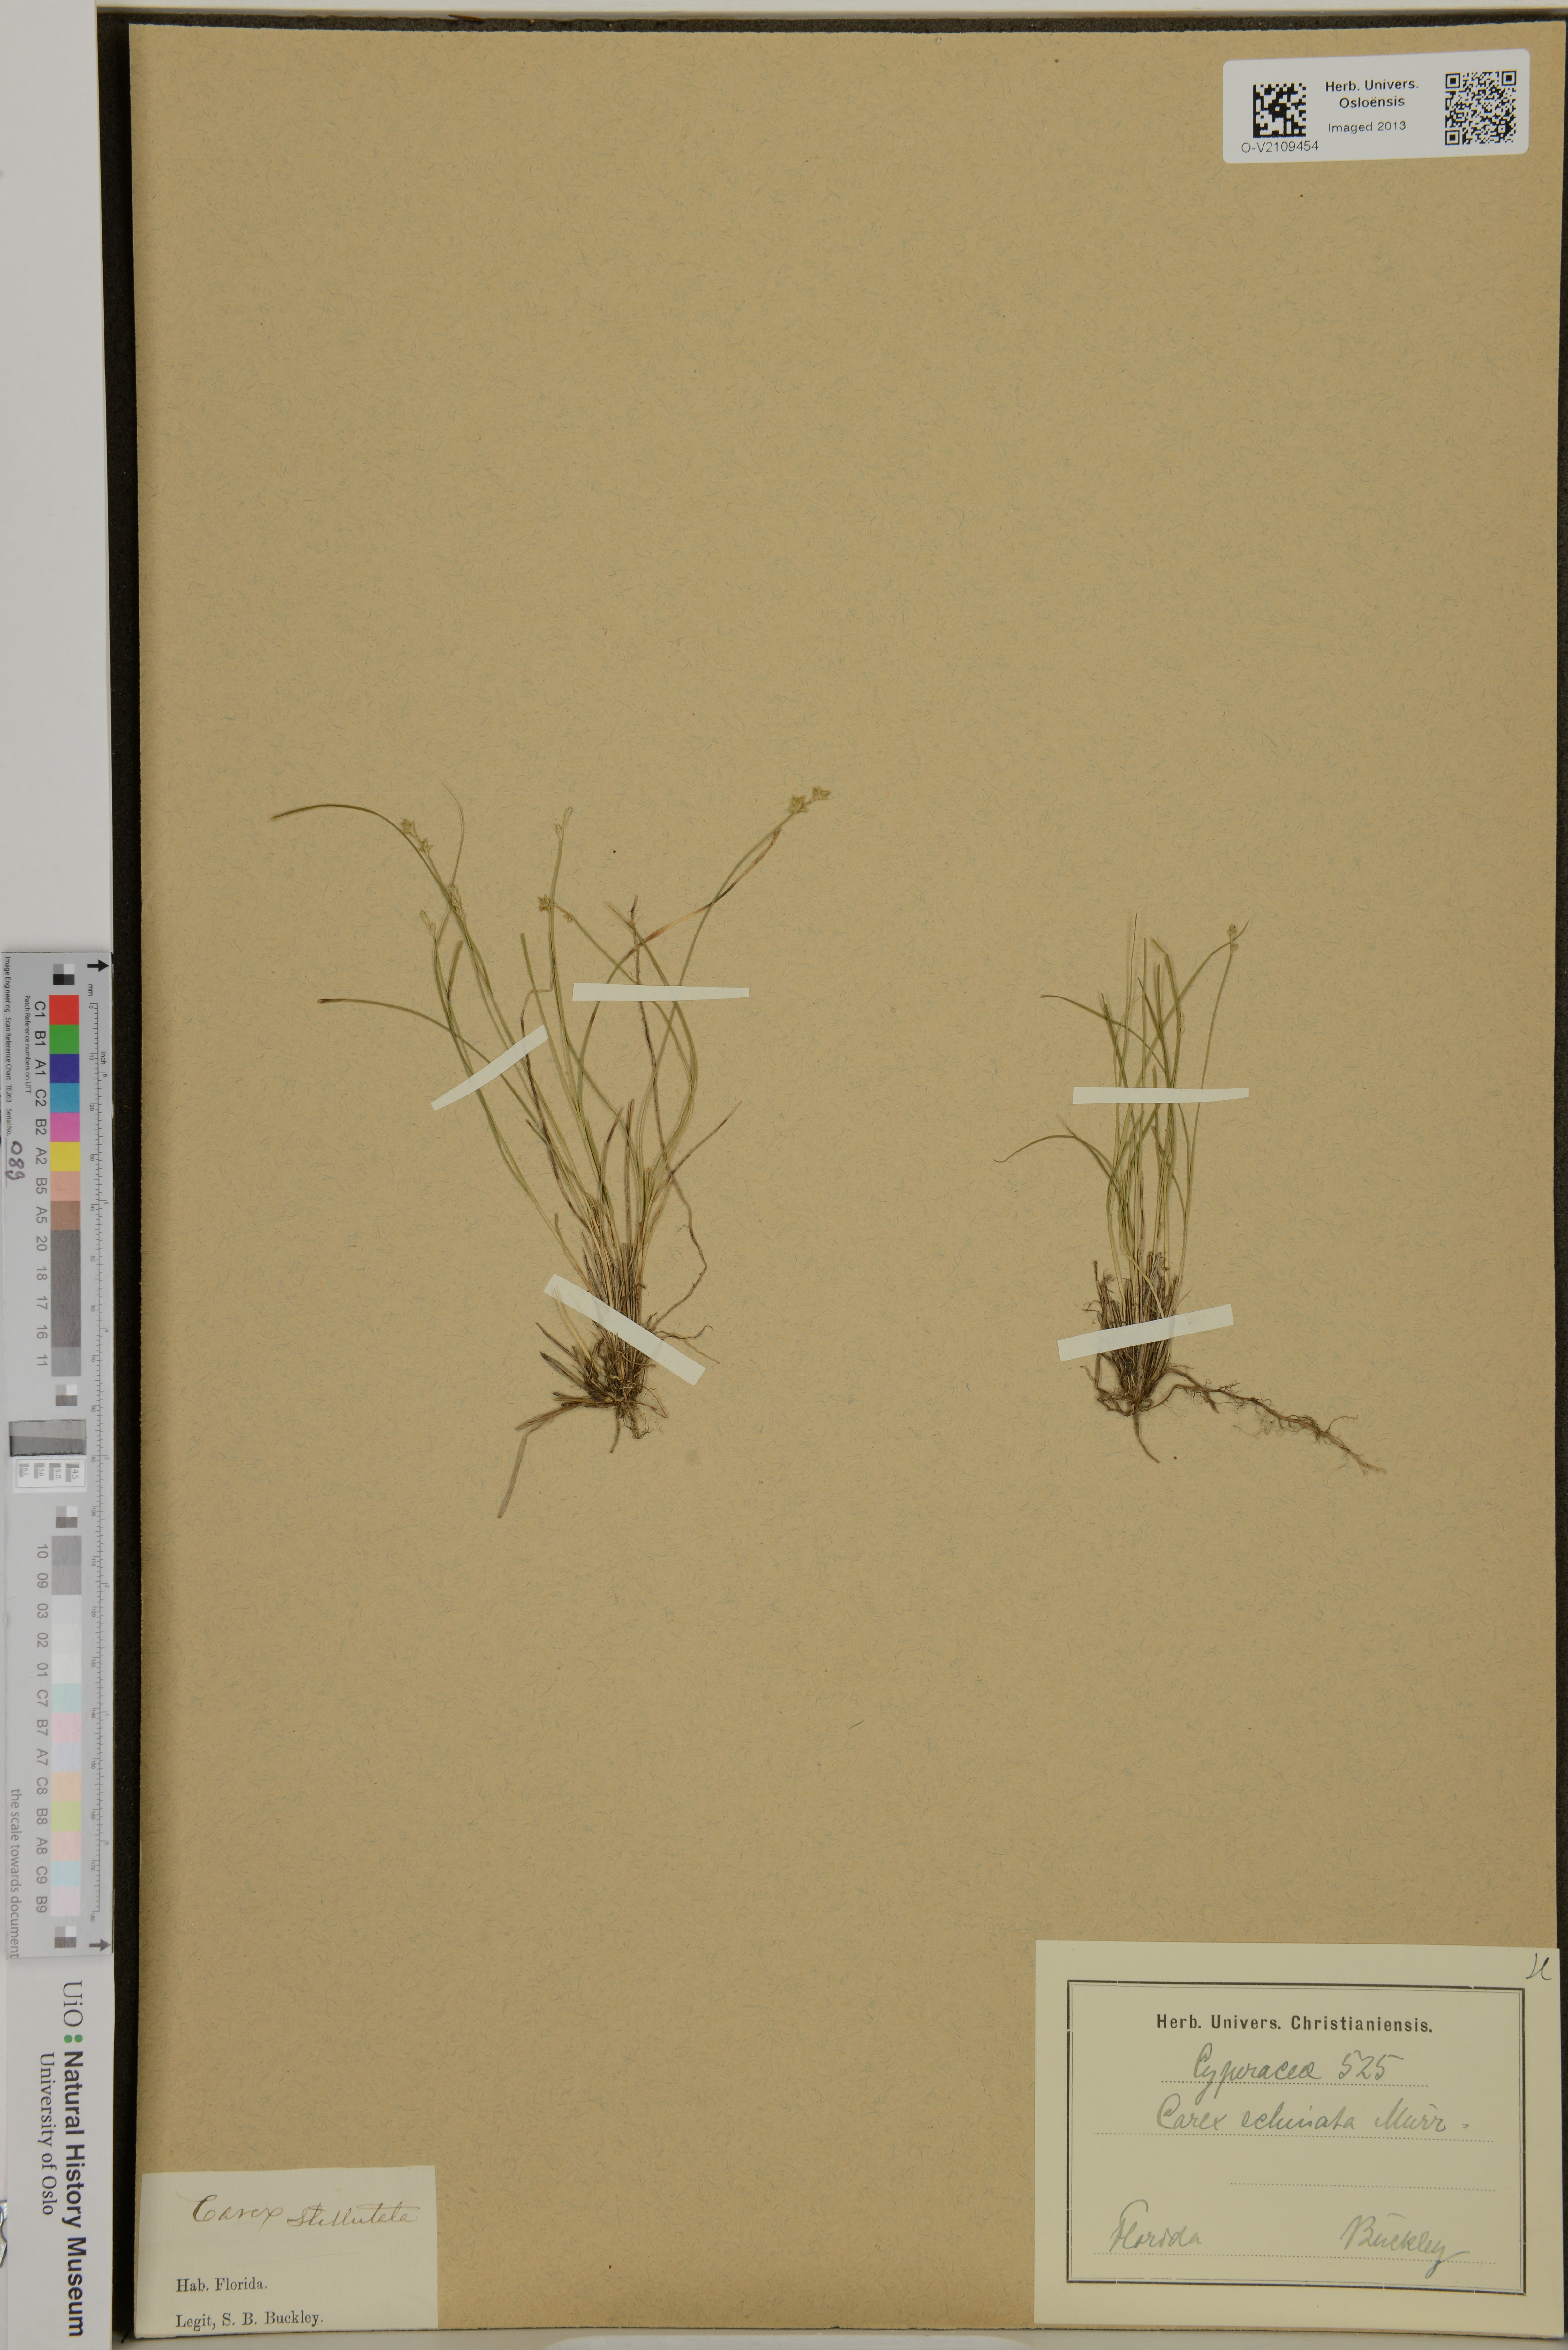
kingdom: Plantae
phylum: Tracheophyta
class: Liliopsida
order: Poales
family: Cyperaceae
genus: Carex
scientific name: Carex echinata
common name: Star sedge
